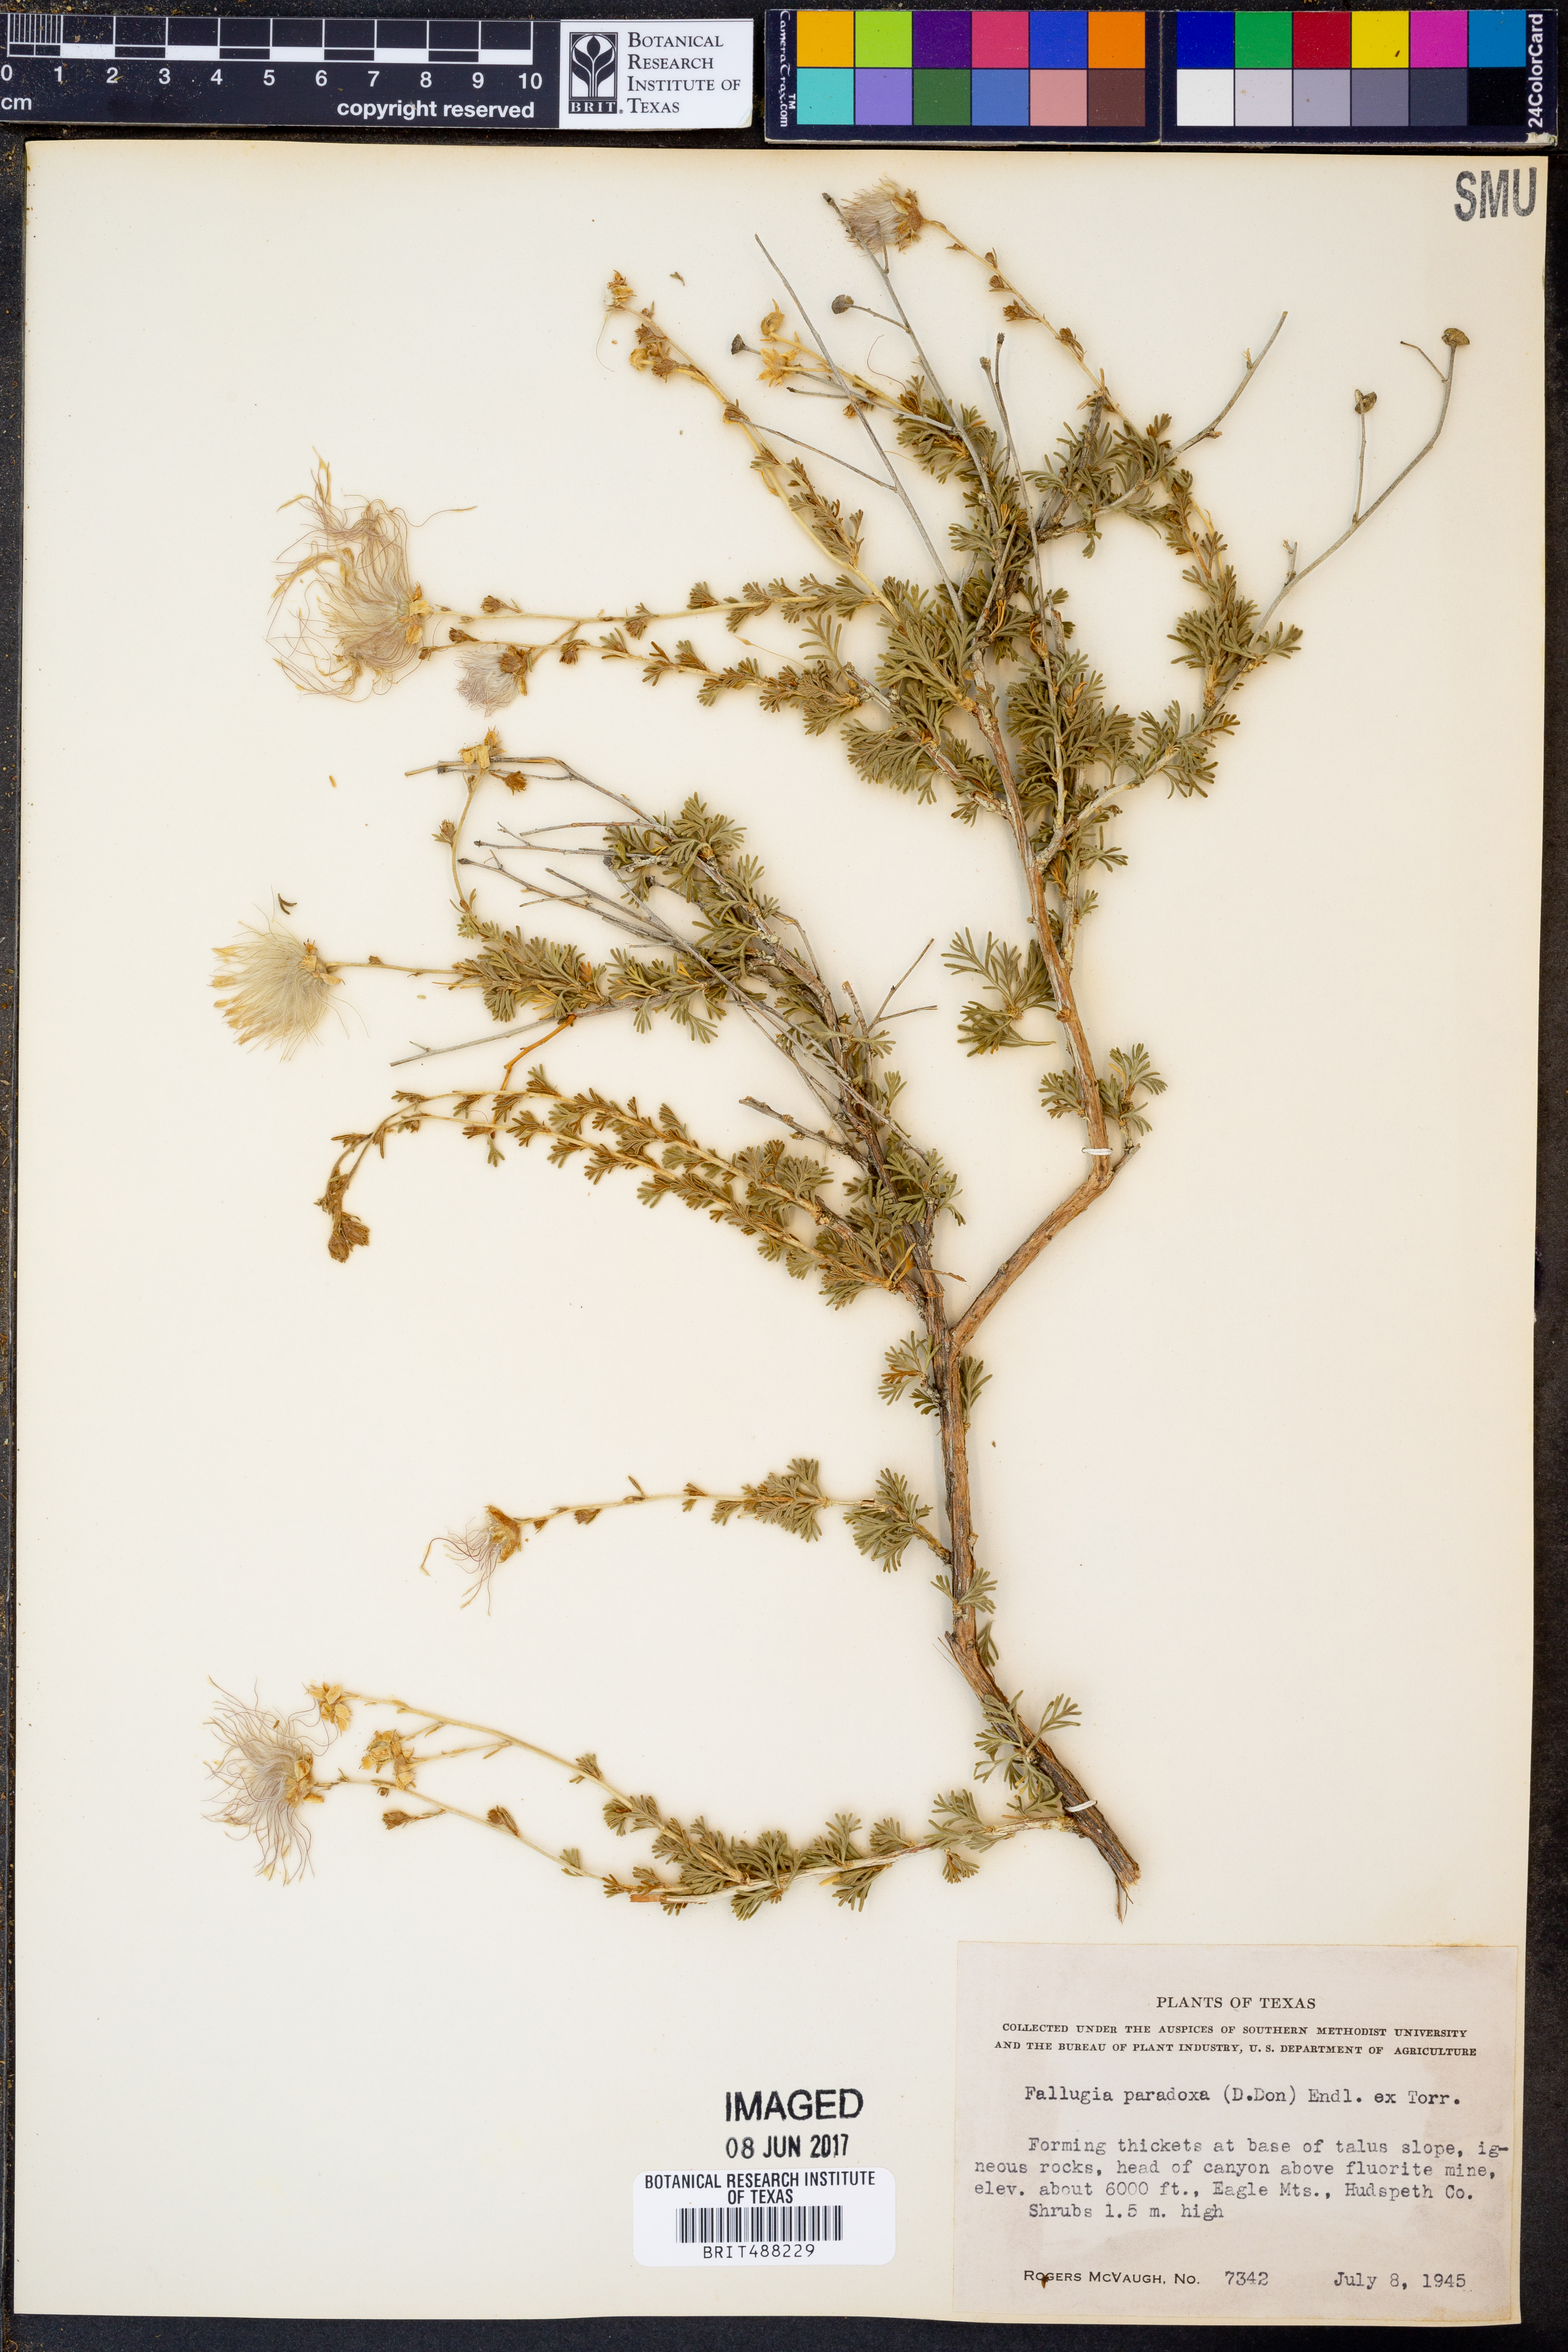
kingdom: Plantae
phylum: Tracheophyta
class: Magnoliopsida
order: Rosales
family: Rosaceae
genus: Fallugia
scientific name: Fallugia paradoxa
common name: Apache-plume
